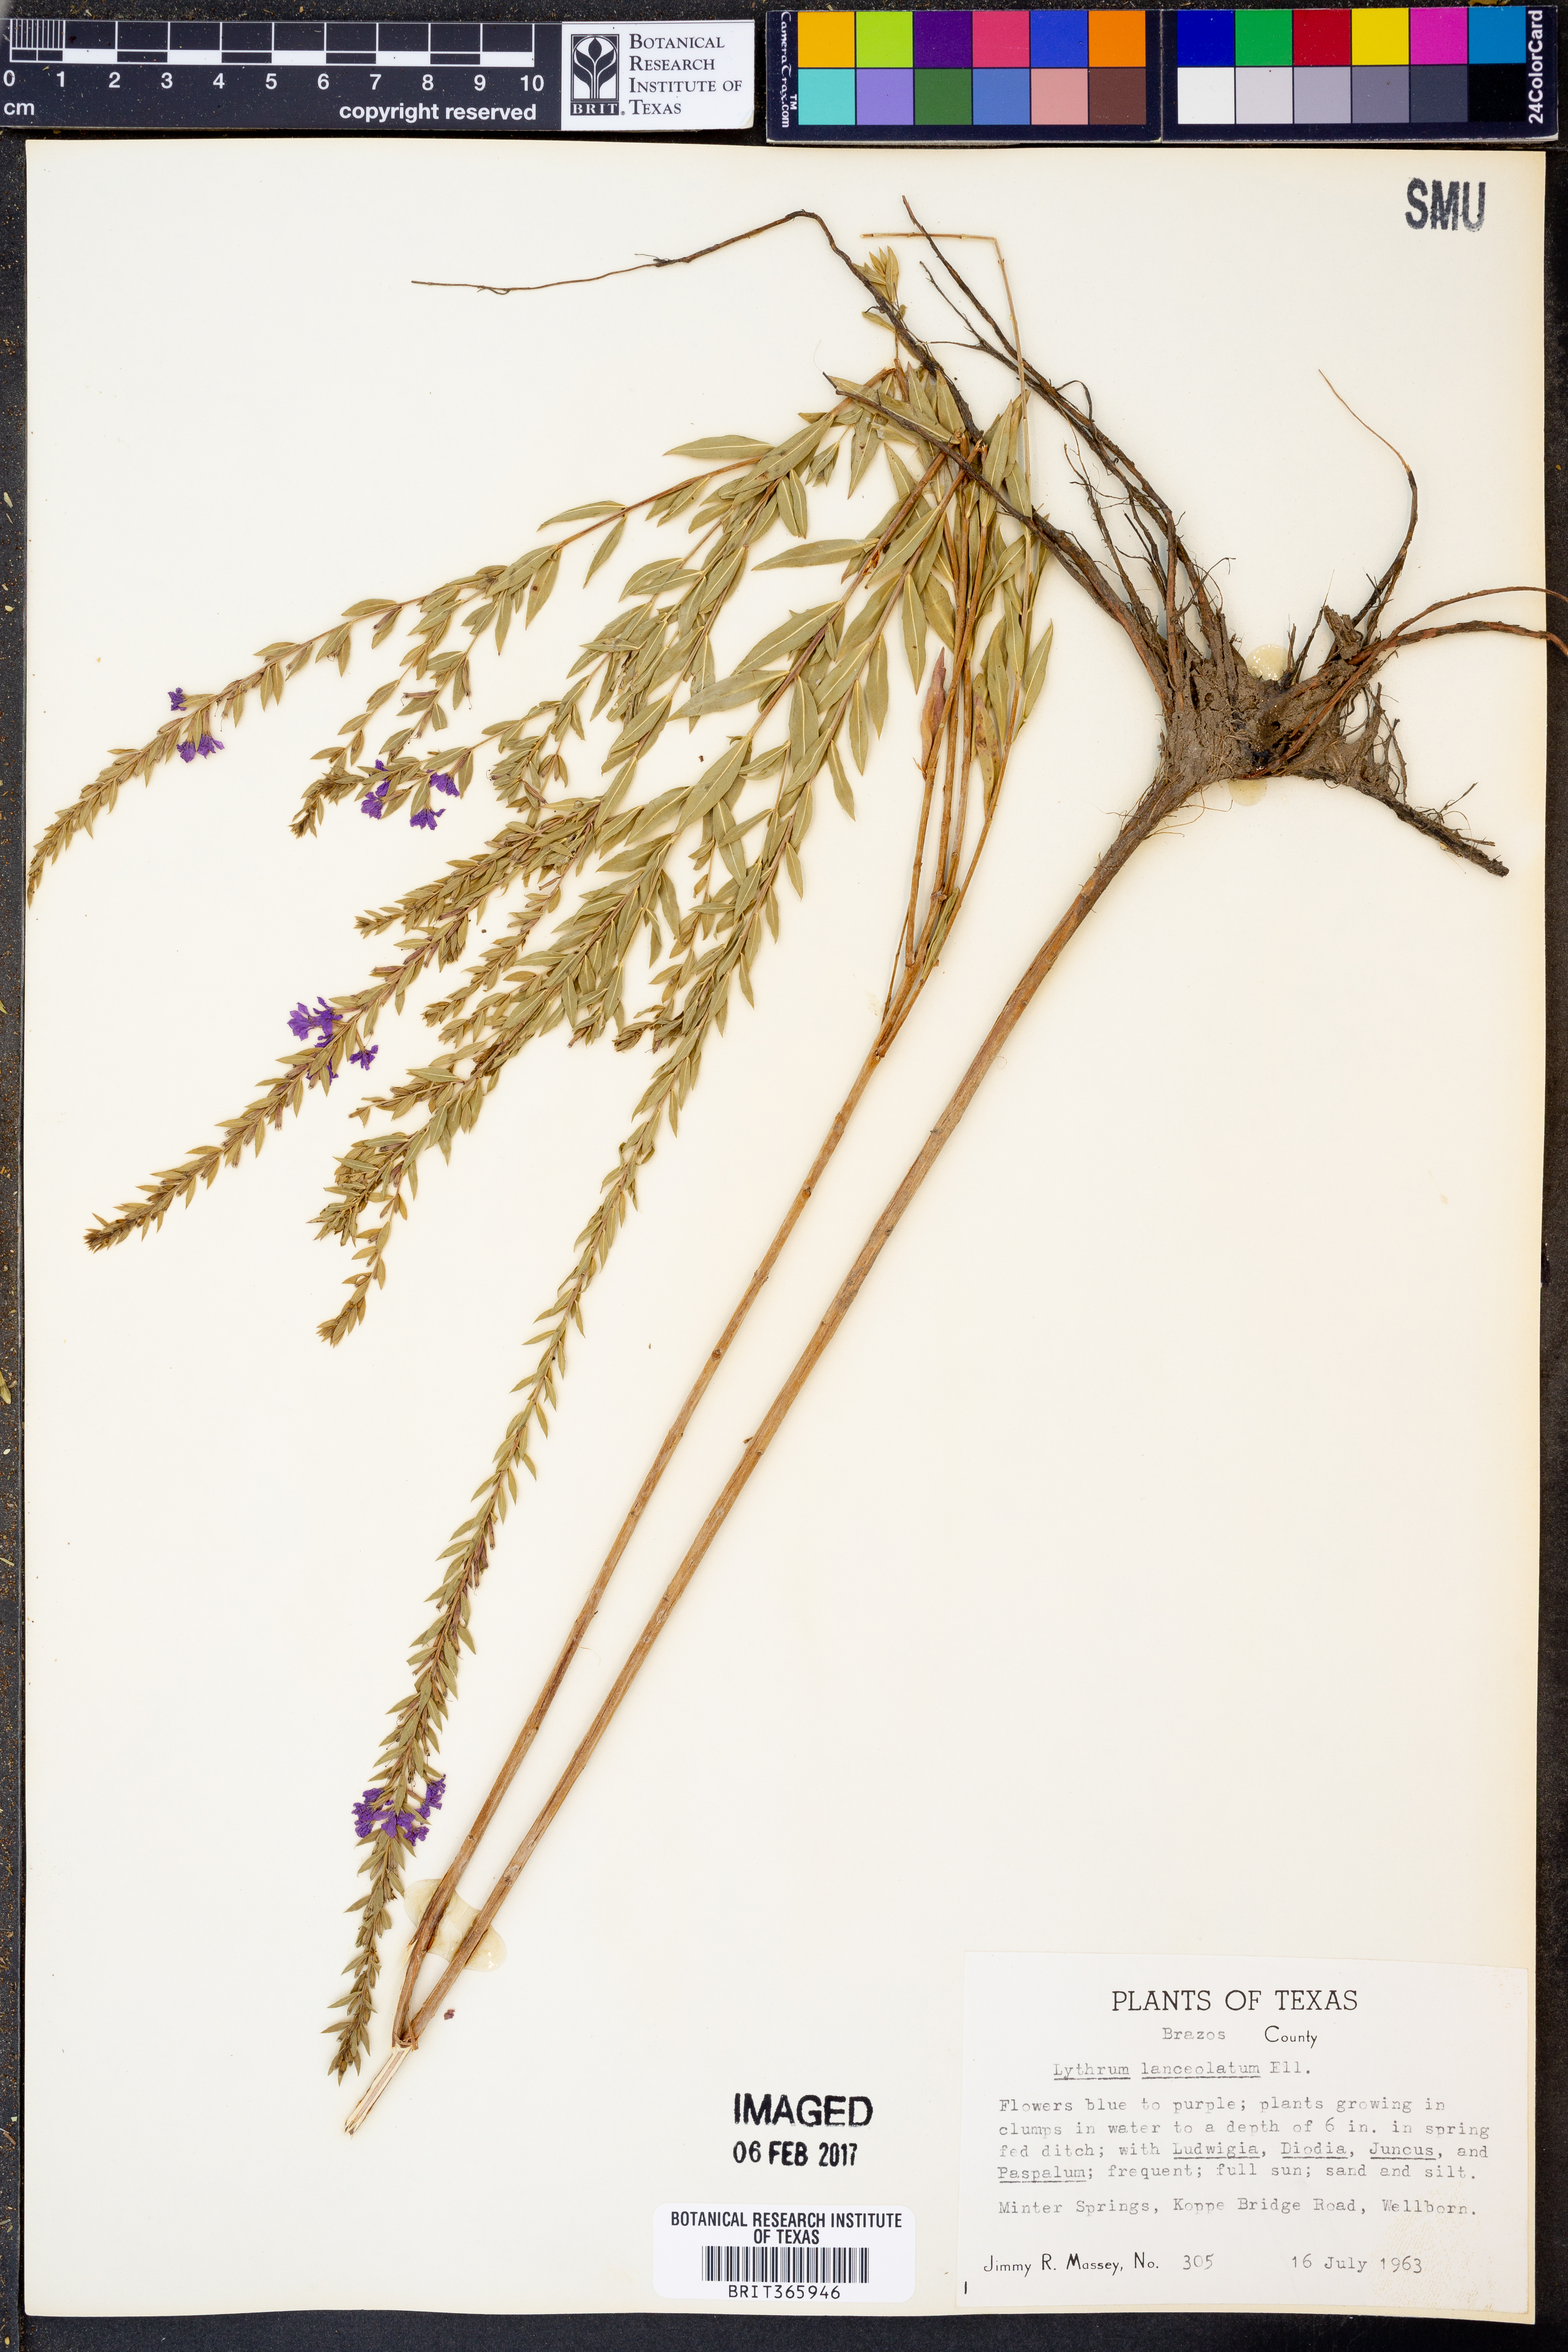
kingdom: Plantae
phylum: Tracheophyta
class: Magnoliopsida
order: Myrtales
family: Lythraceae
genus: Lythrum
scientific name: Lythrum alatum
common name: Winged loosestrife
